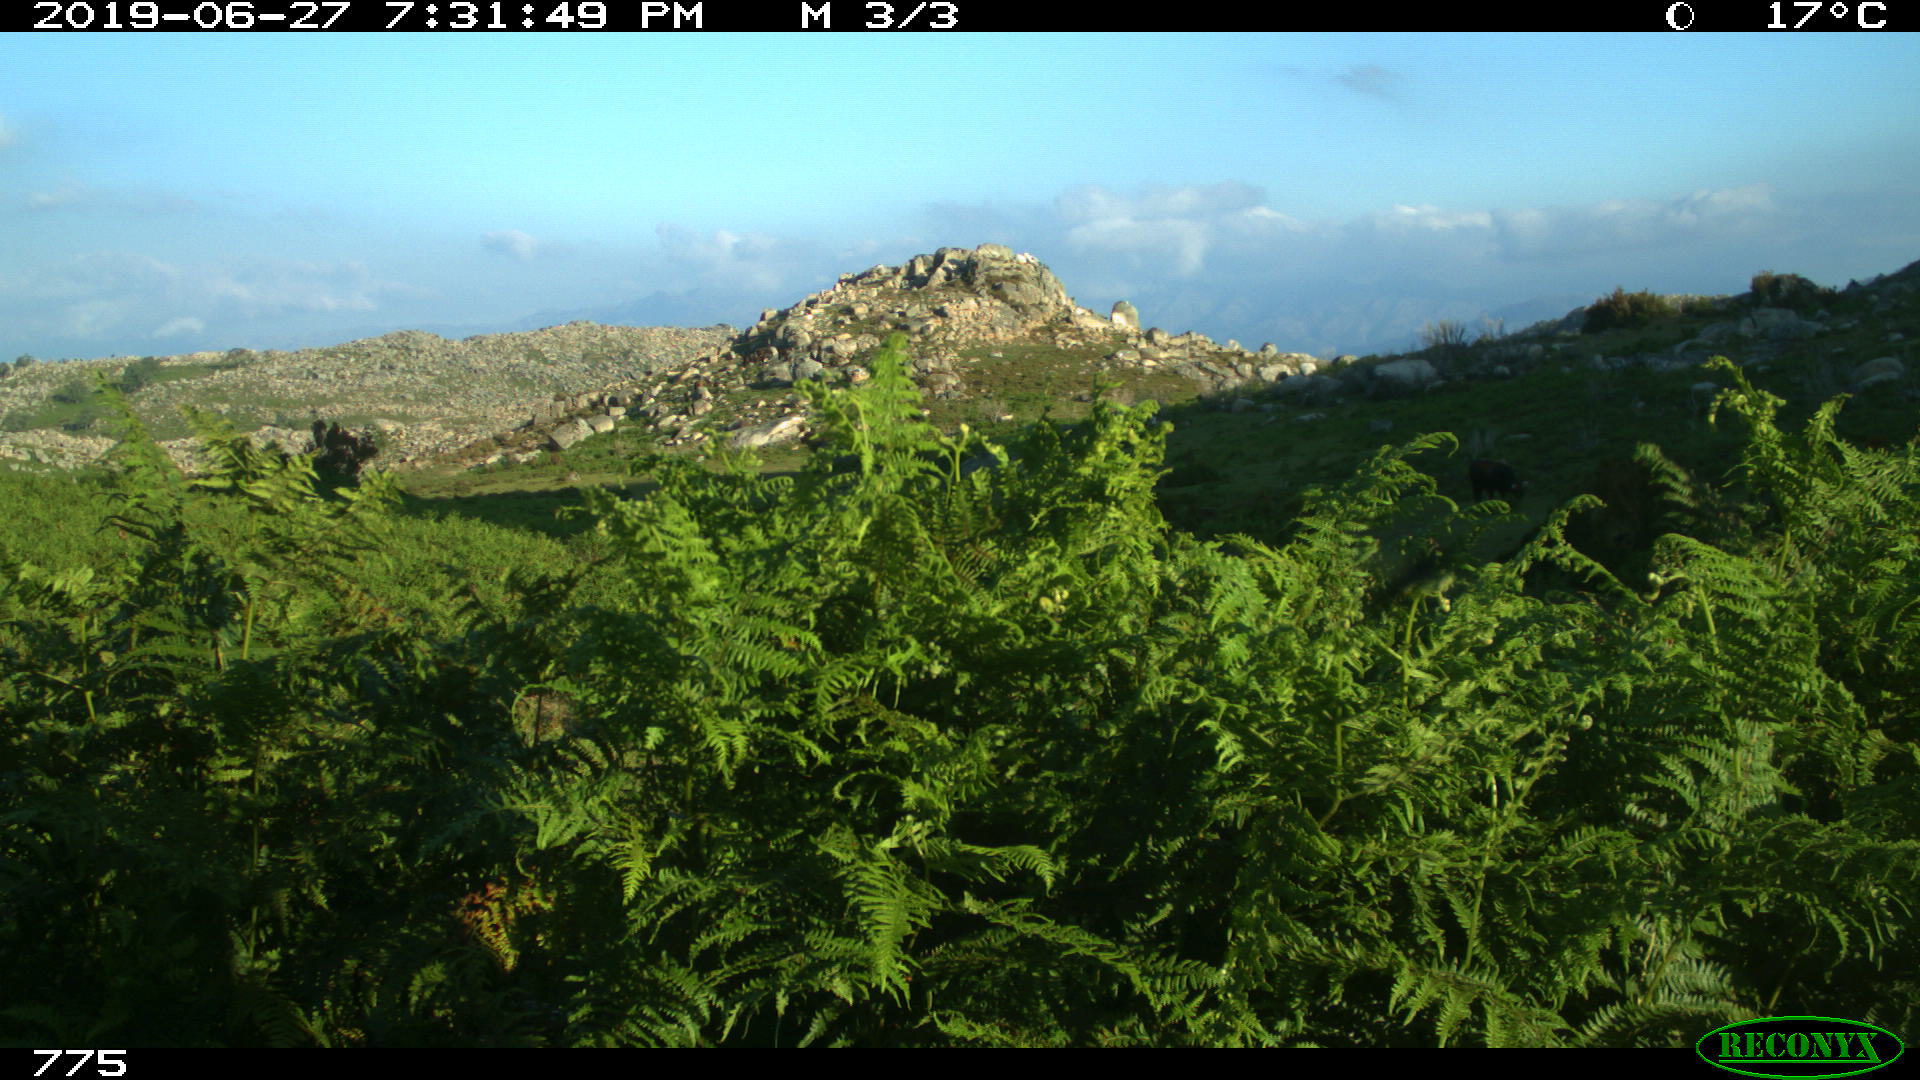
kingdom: Animalia
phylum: Chordata
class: Mammalia
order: Artiodactyla
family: Bovidae
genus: Bos
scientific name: Bos taurus
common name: Domesticated cattle
